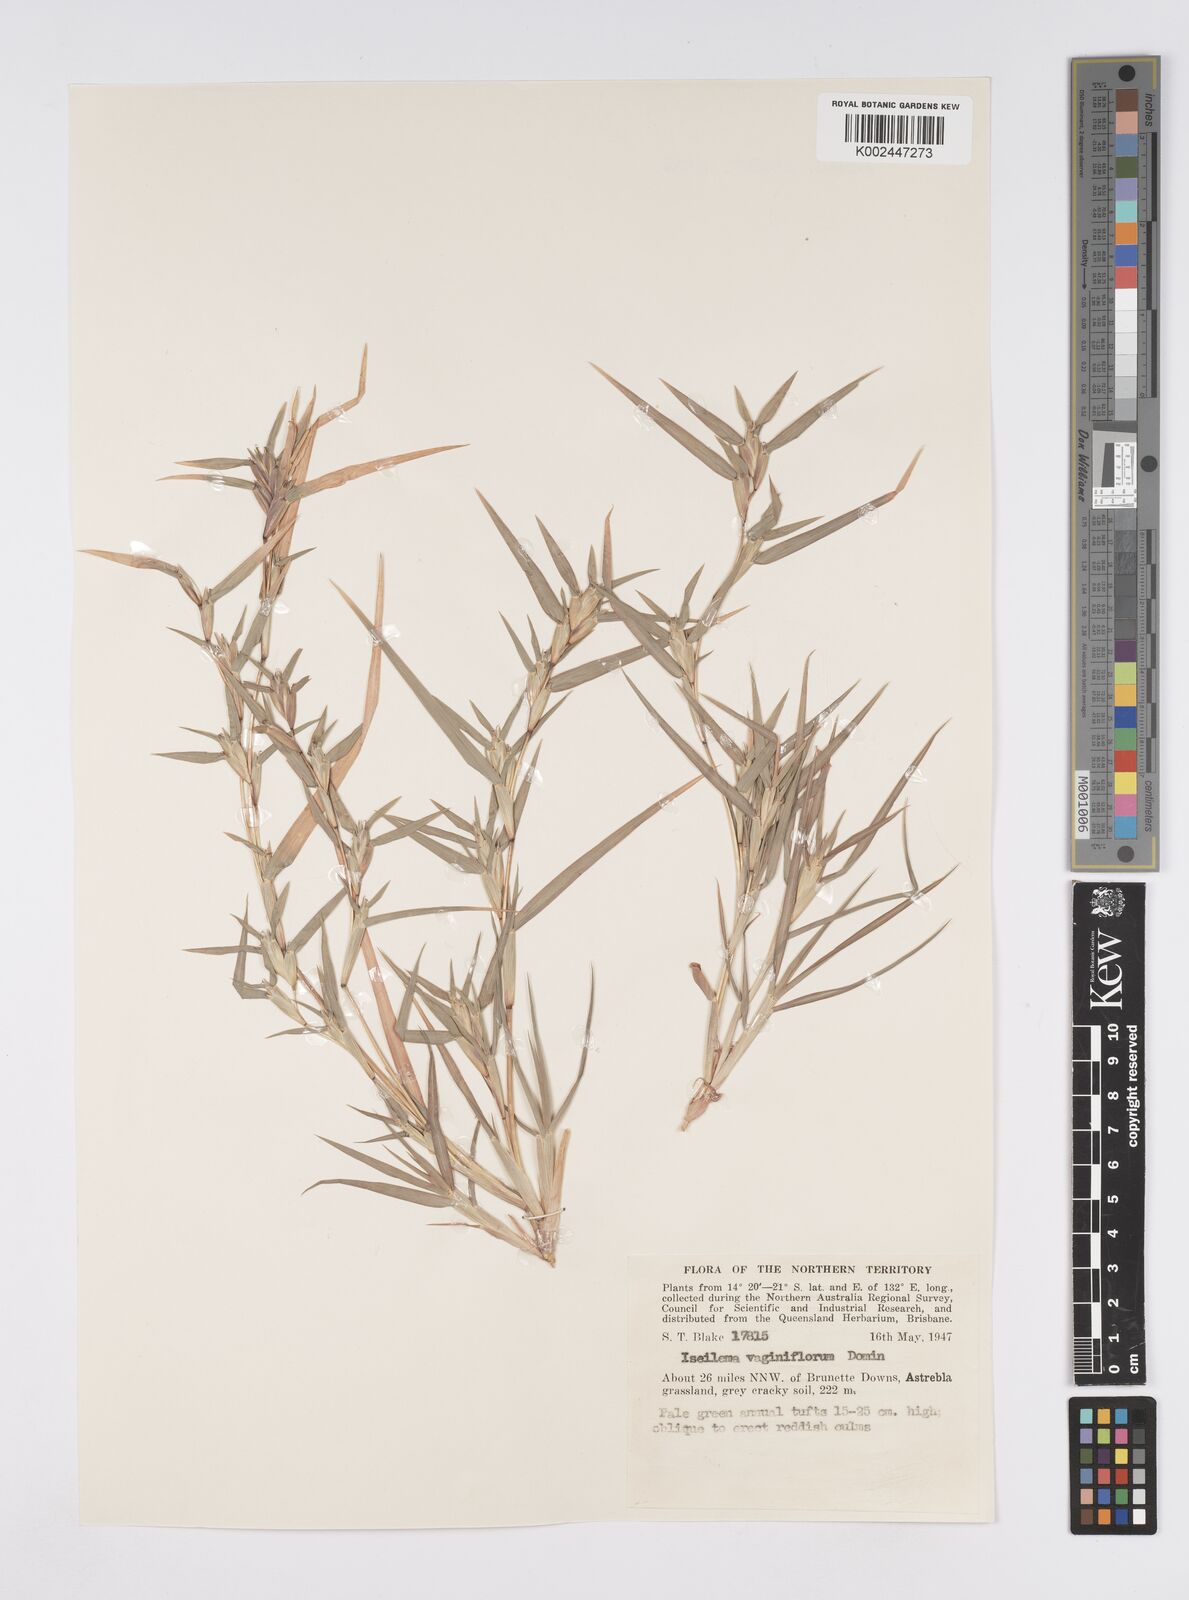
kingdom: Plantae
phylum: Tracheophyta
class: Liliopsida
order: Poales
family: Poaceae
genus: Iseilema
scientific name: Iseilema vaginiflorum
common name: Red flinders grass
